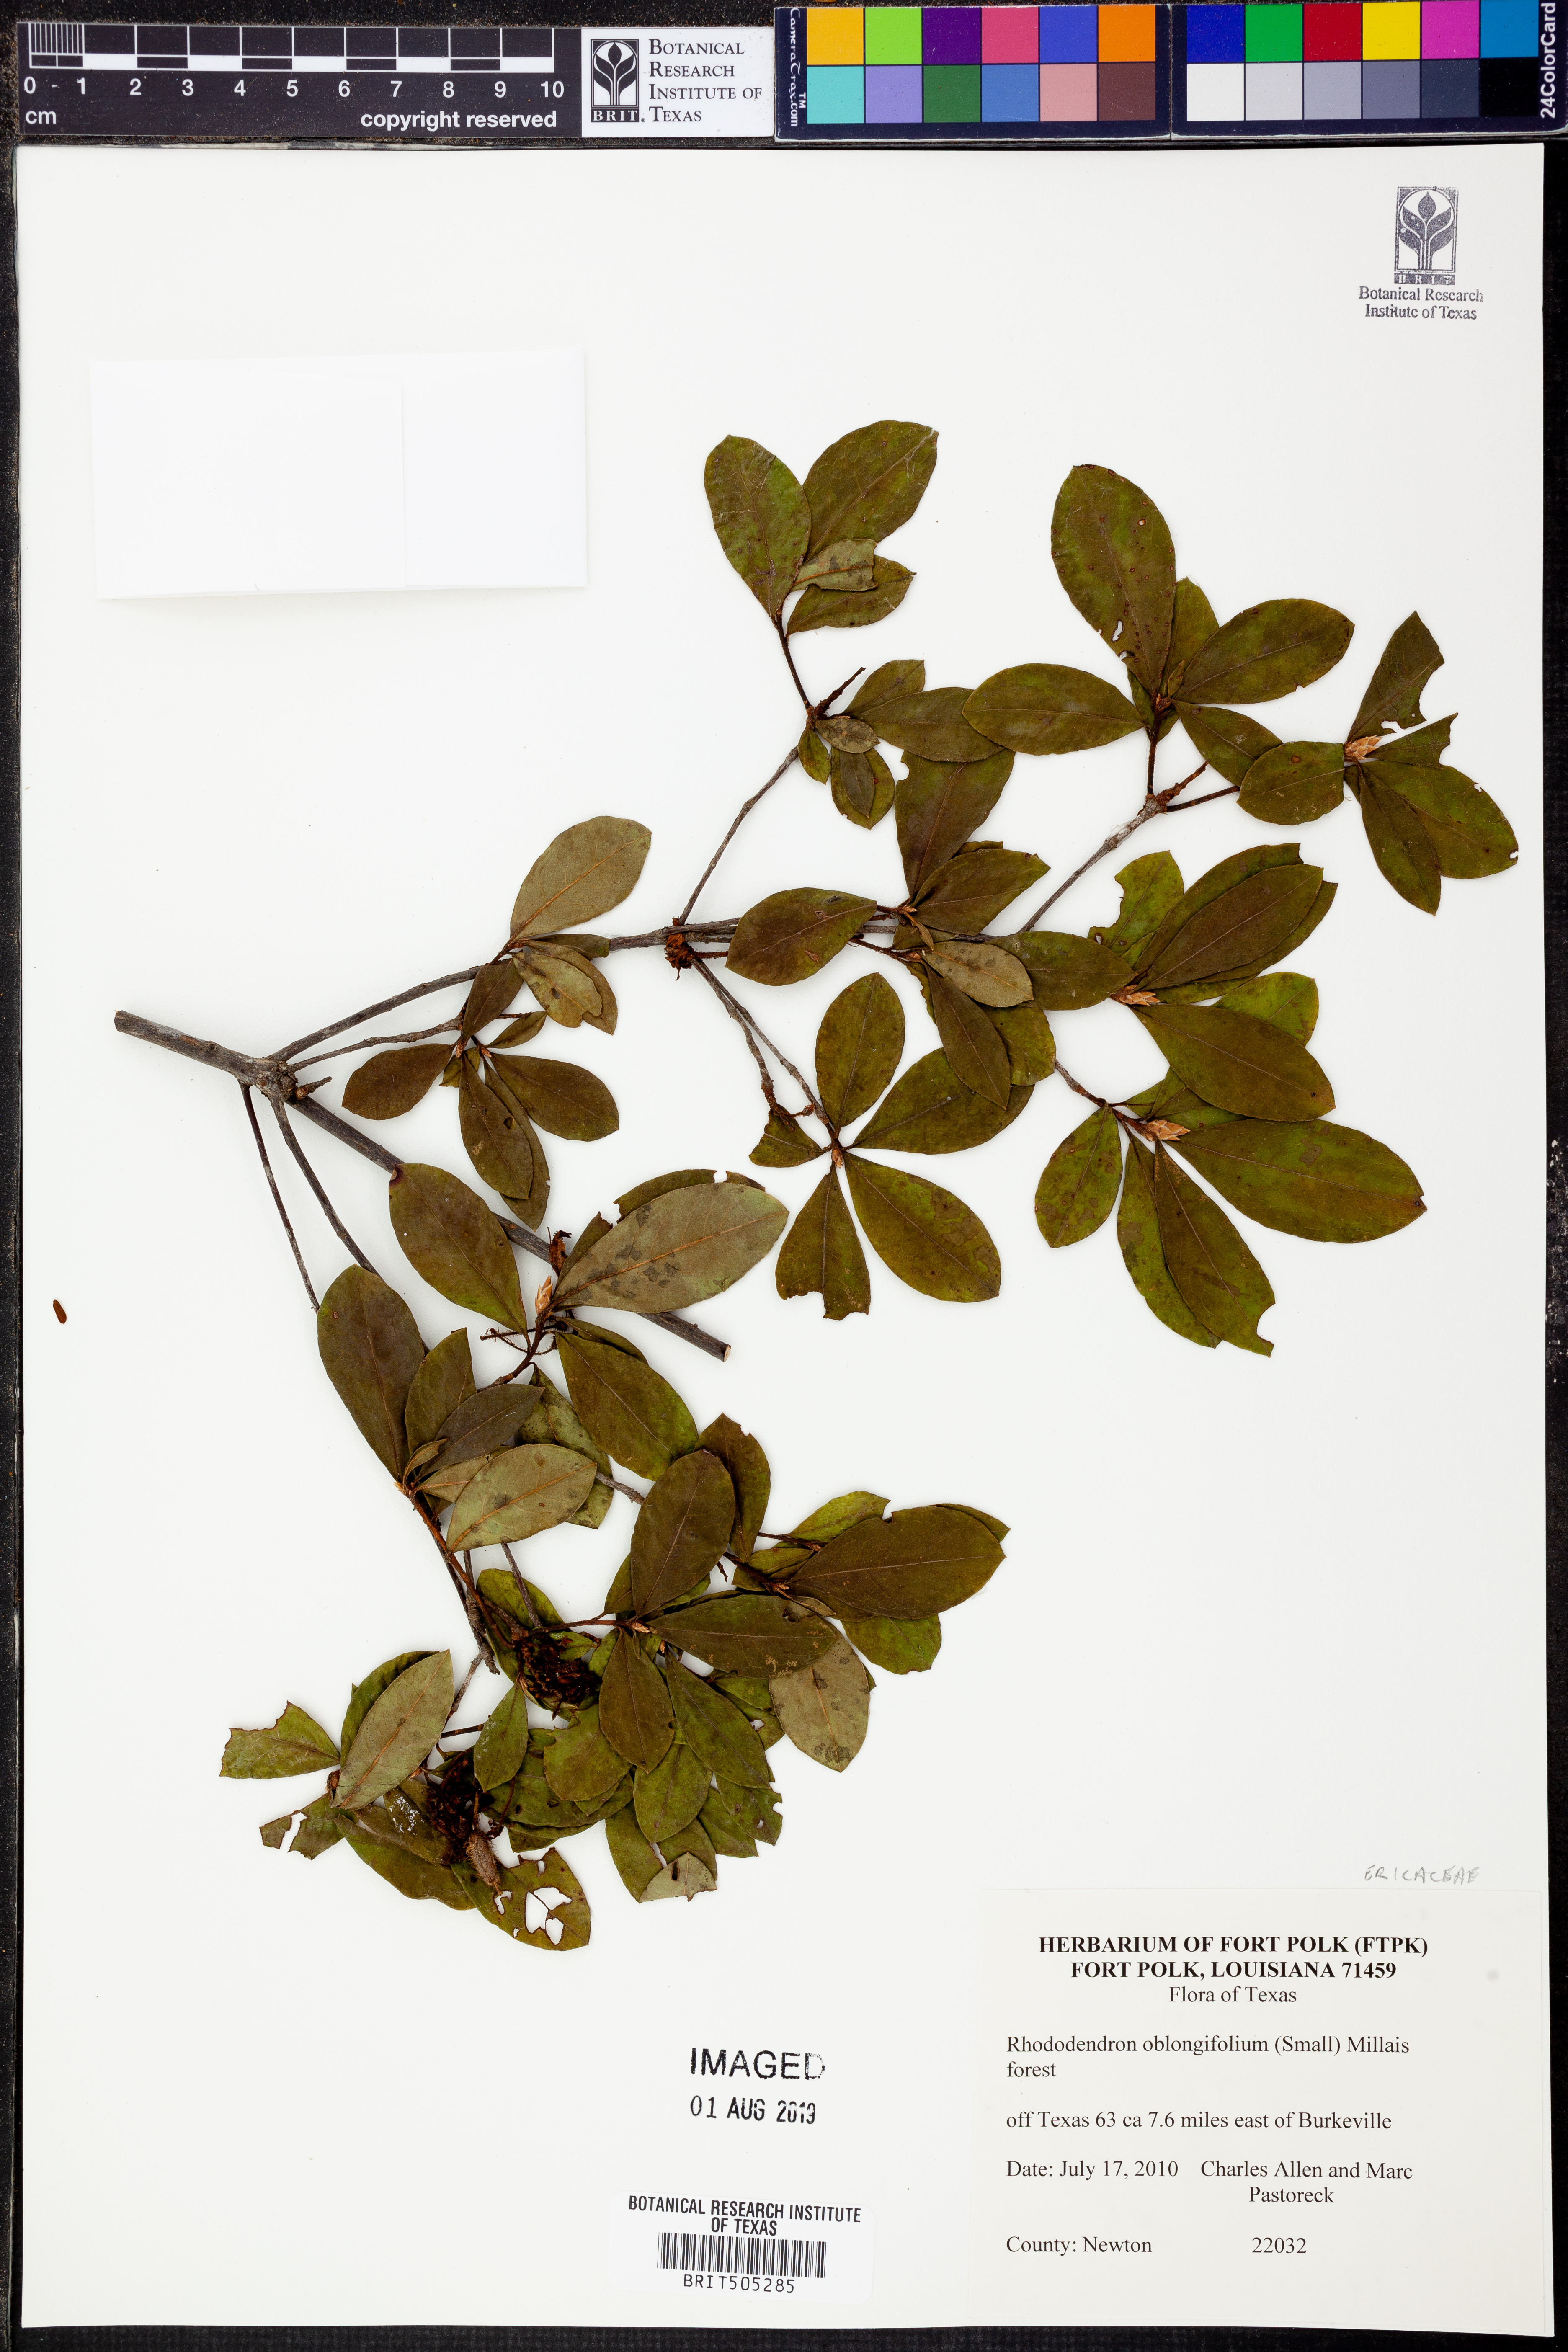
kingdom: Plantae
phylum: Tracheophyta
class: Magnoliopsida
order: Ericales
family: Ericaceae
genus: Rhododendron
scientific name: Rhododendron viscosum
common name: Clammy azalea
